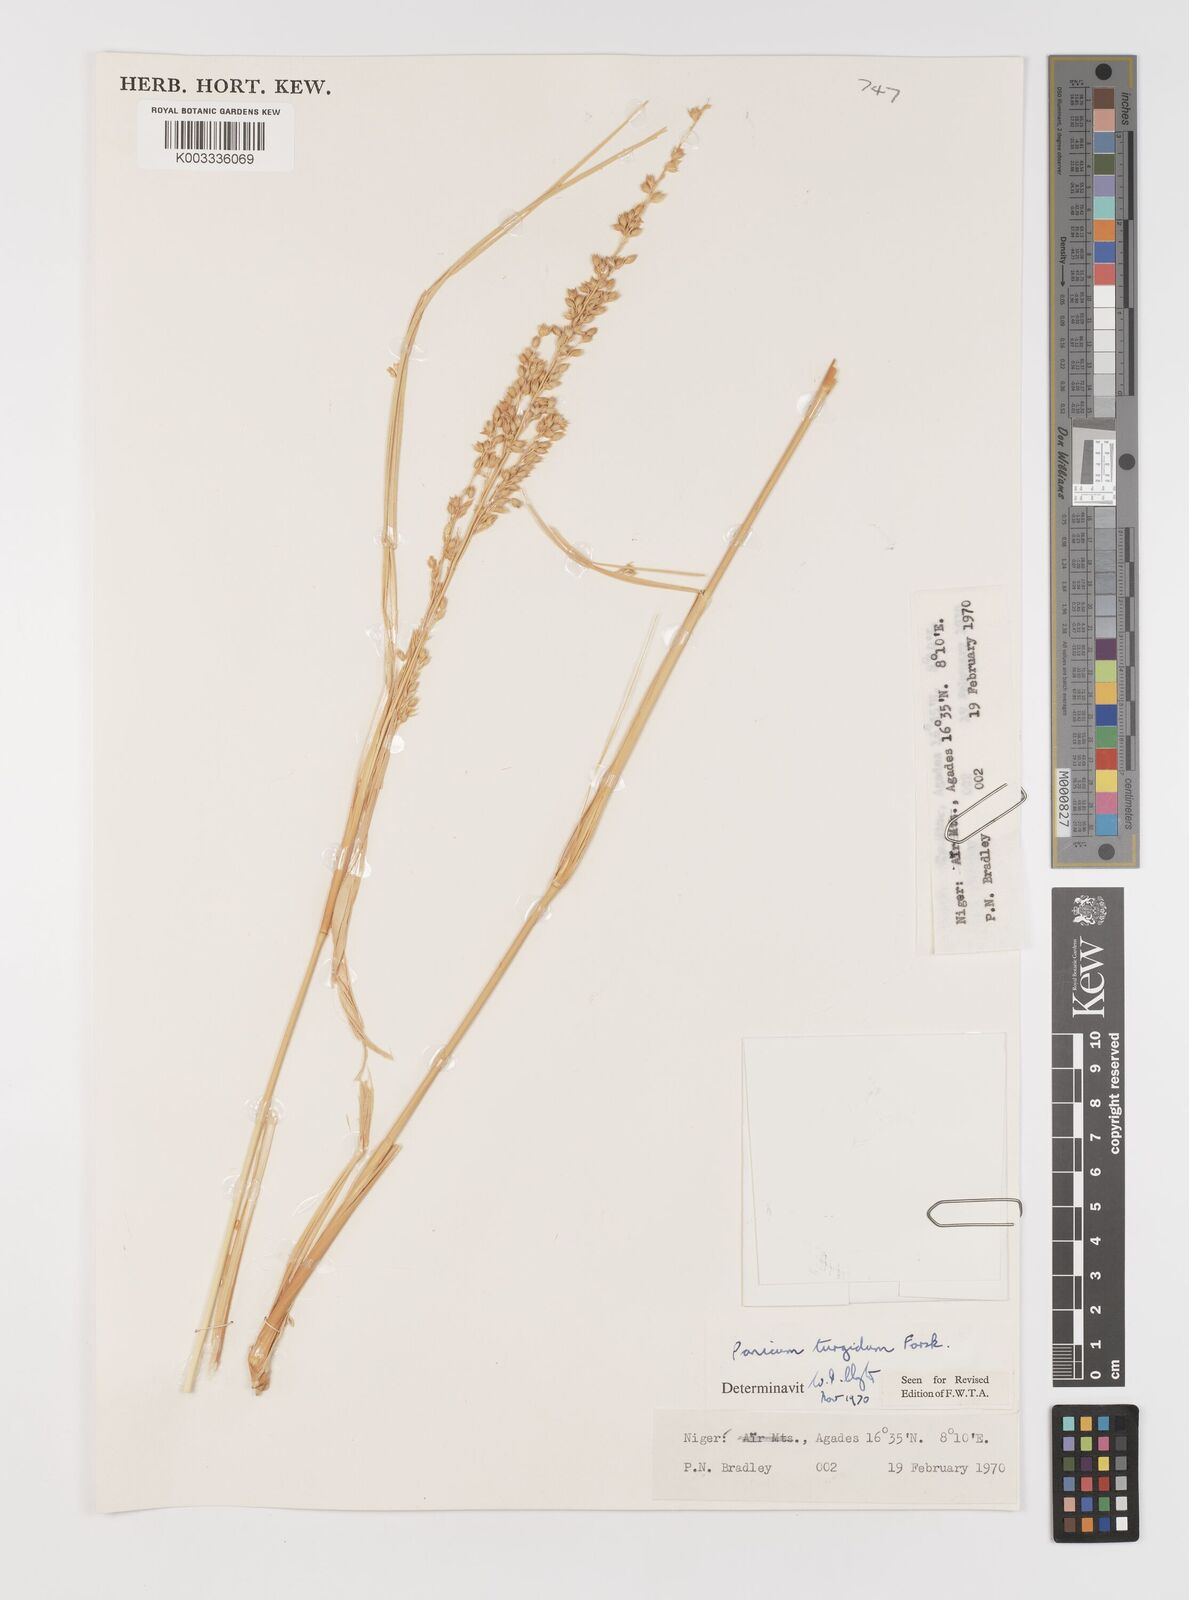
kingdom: Plantae
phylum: Tracheophyta
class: Liliopsida
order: Poales
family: Poaceae
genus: Panicum
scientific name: Panicum turgidum
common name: Desert grass
